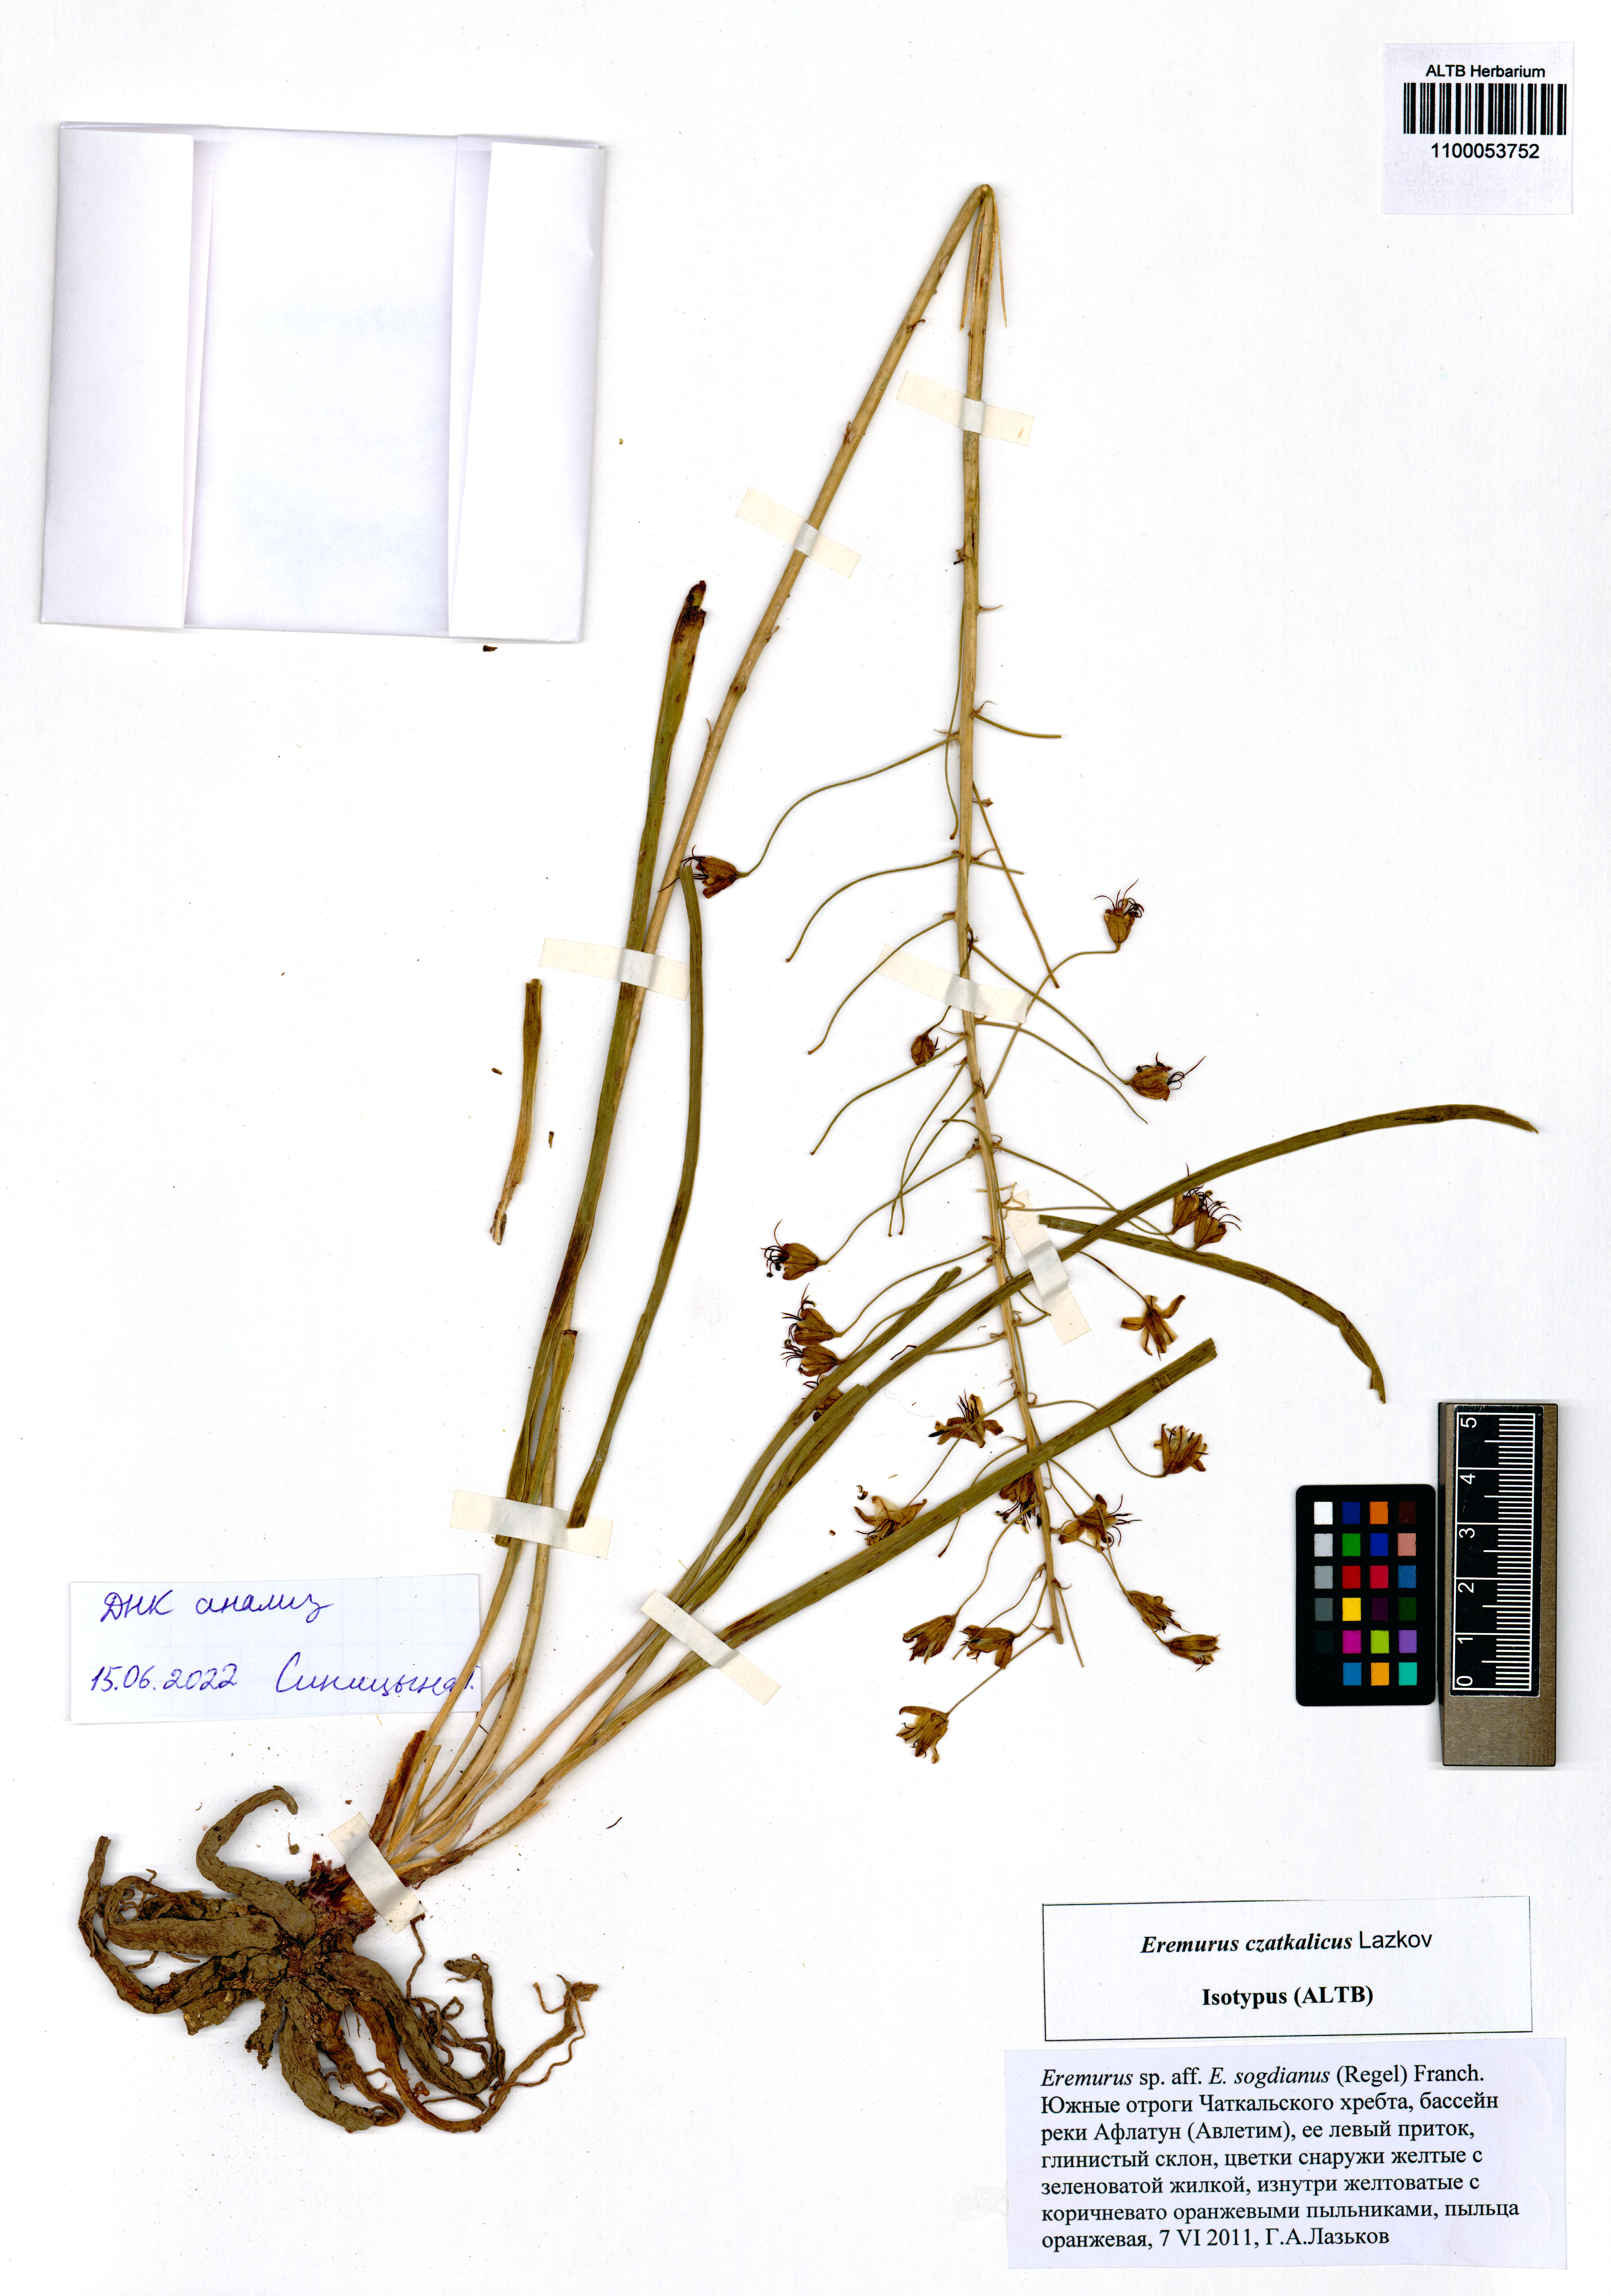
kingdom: Plantae
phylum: Tracheophyta
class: Liliopsida
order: Asparagales
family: Asphodelaceae
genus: Eremurus
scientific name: Eremurus czatkalicus
